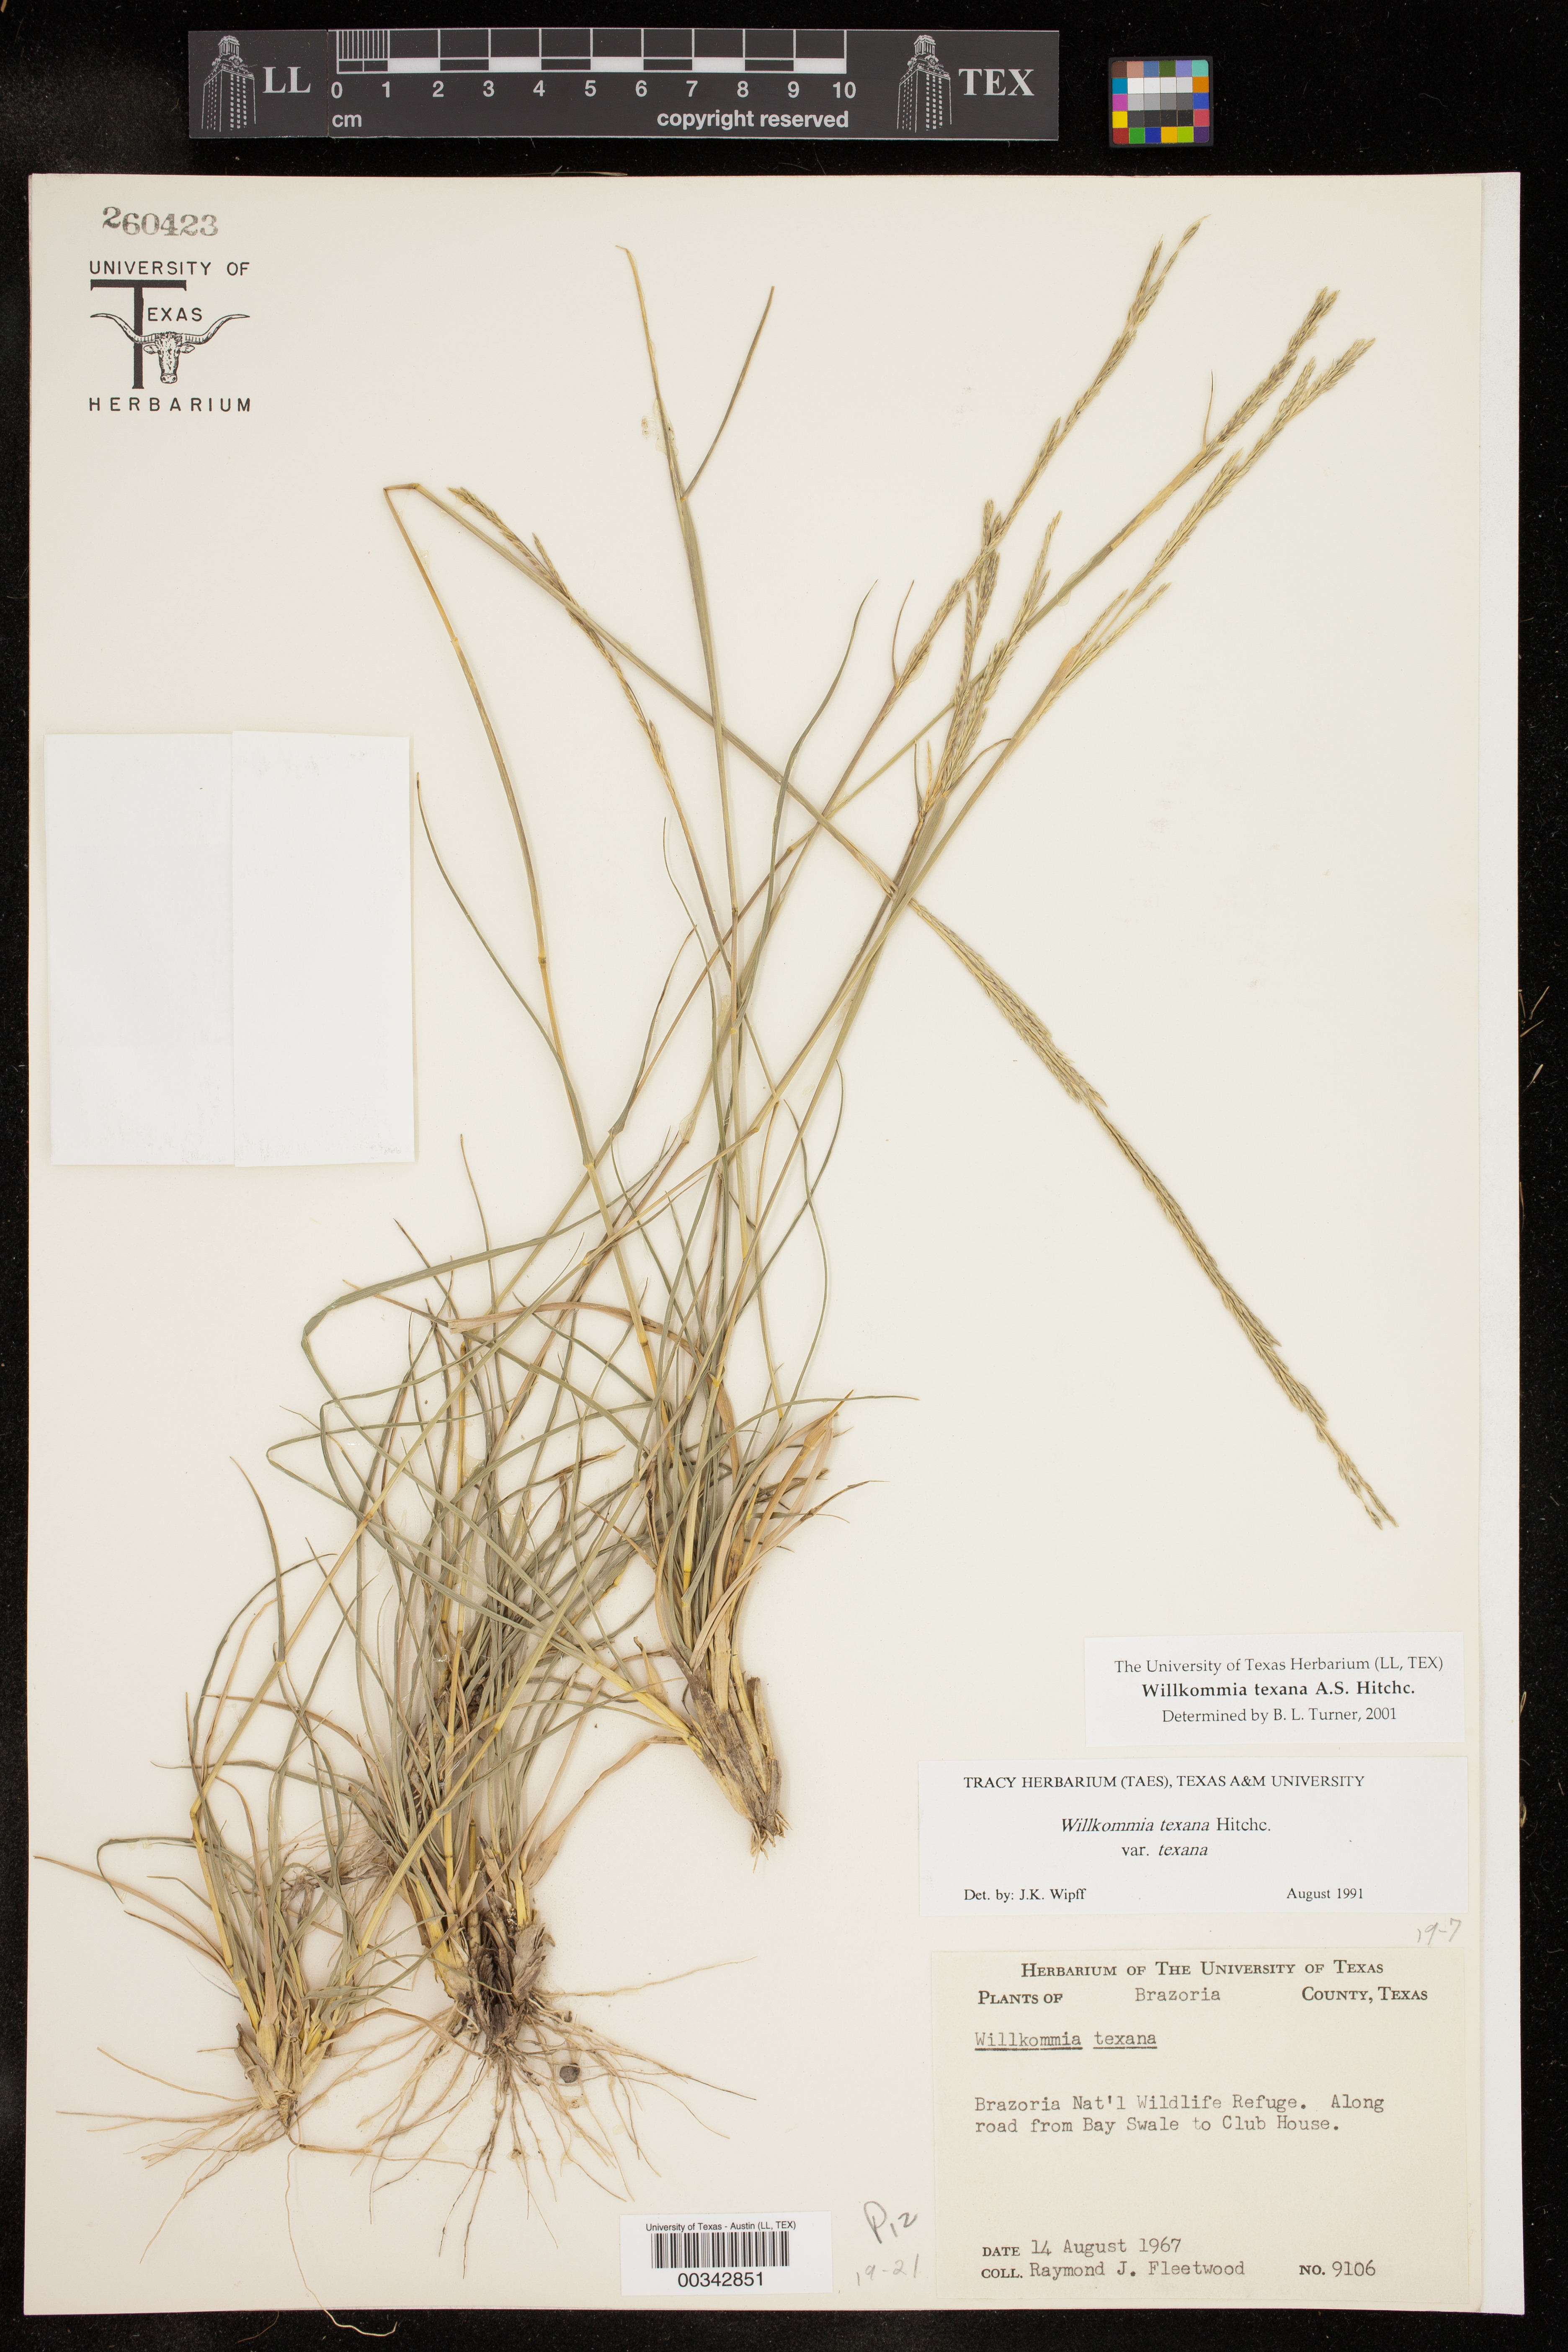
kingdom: Plantae
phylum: Tracheophyta
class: Liliopsida
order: Poales
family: Poaceae
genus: Willkommia
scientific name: Willkommia texana
